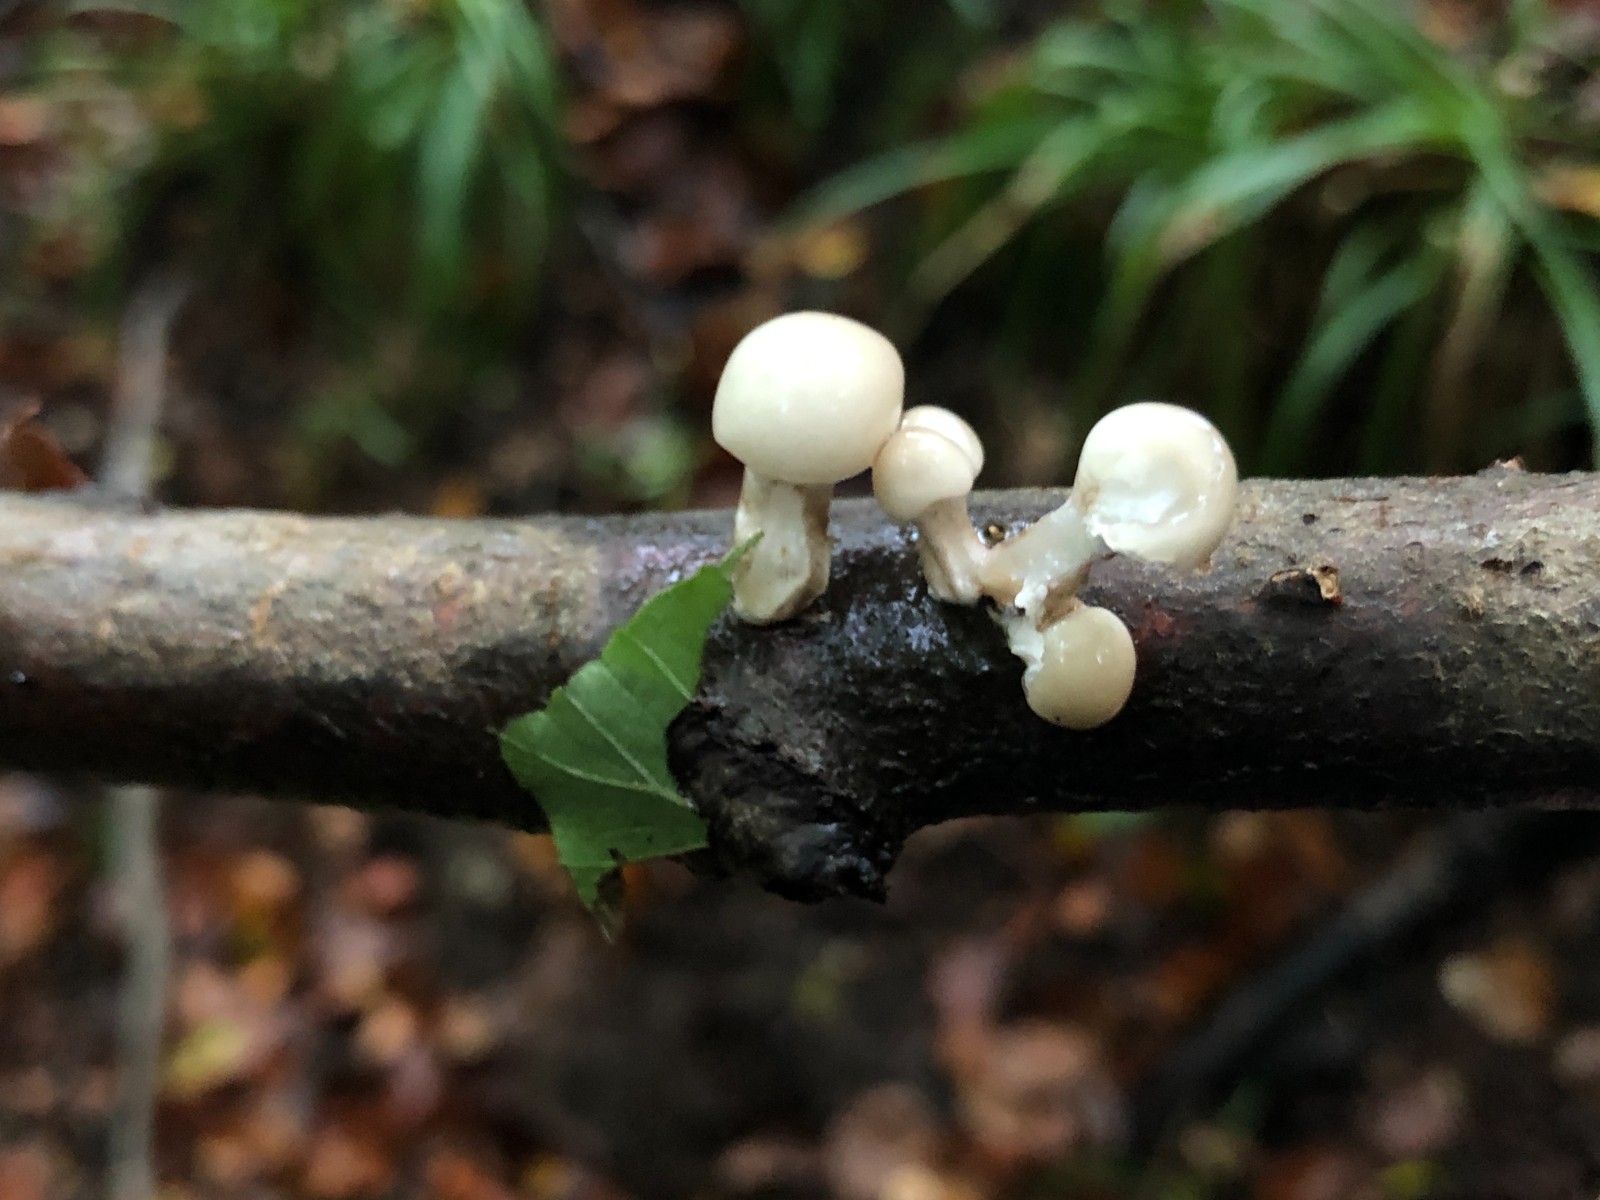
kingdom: Fungi
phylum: Basidiomycota
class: Agaricomycetes
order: Agaricales
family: Physalacriaceae
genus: Mucidula
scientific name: Mucidula mucida
